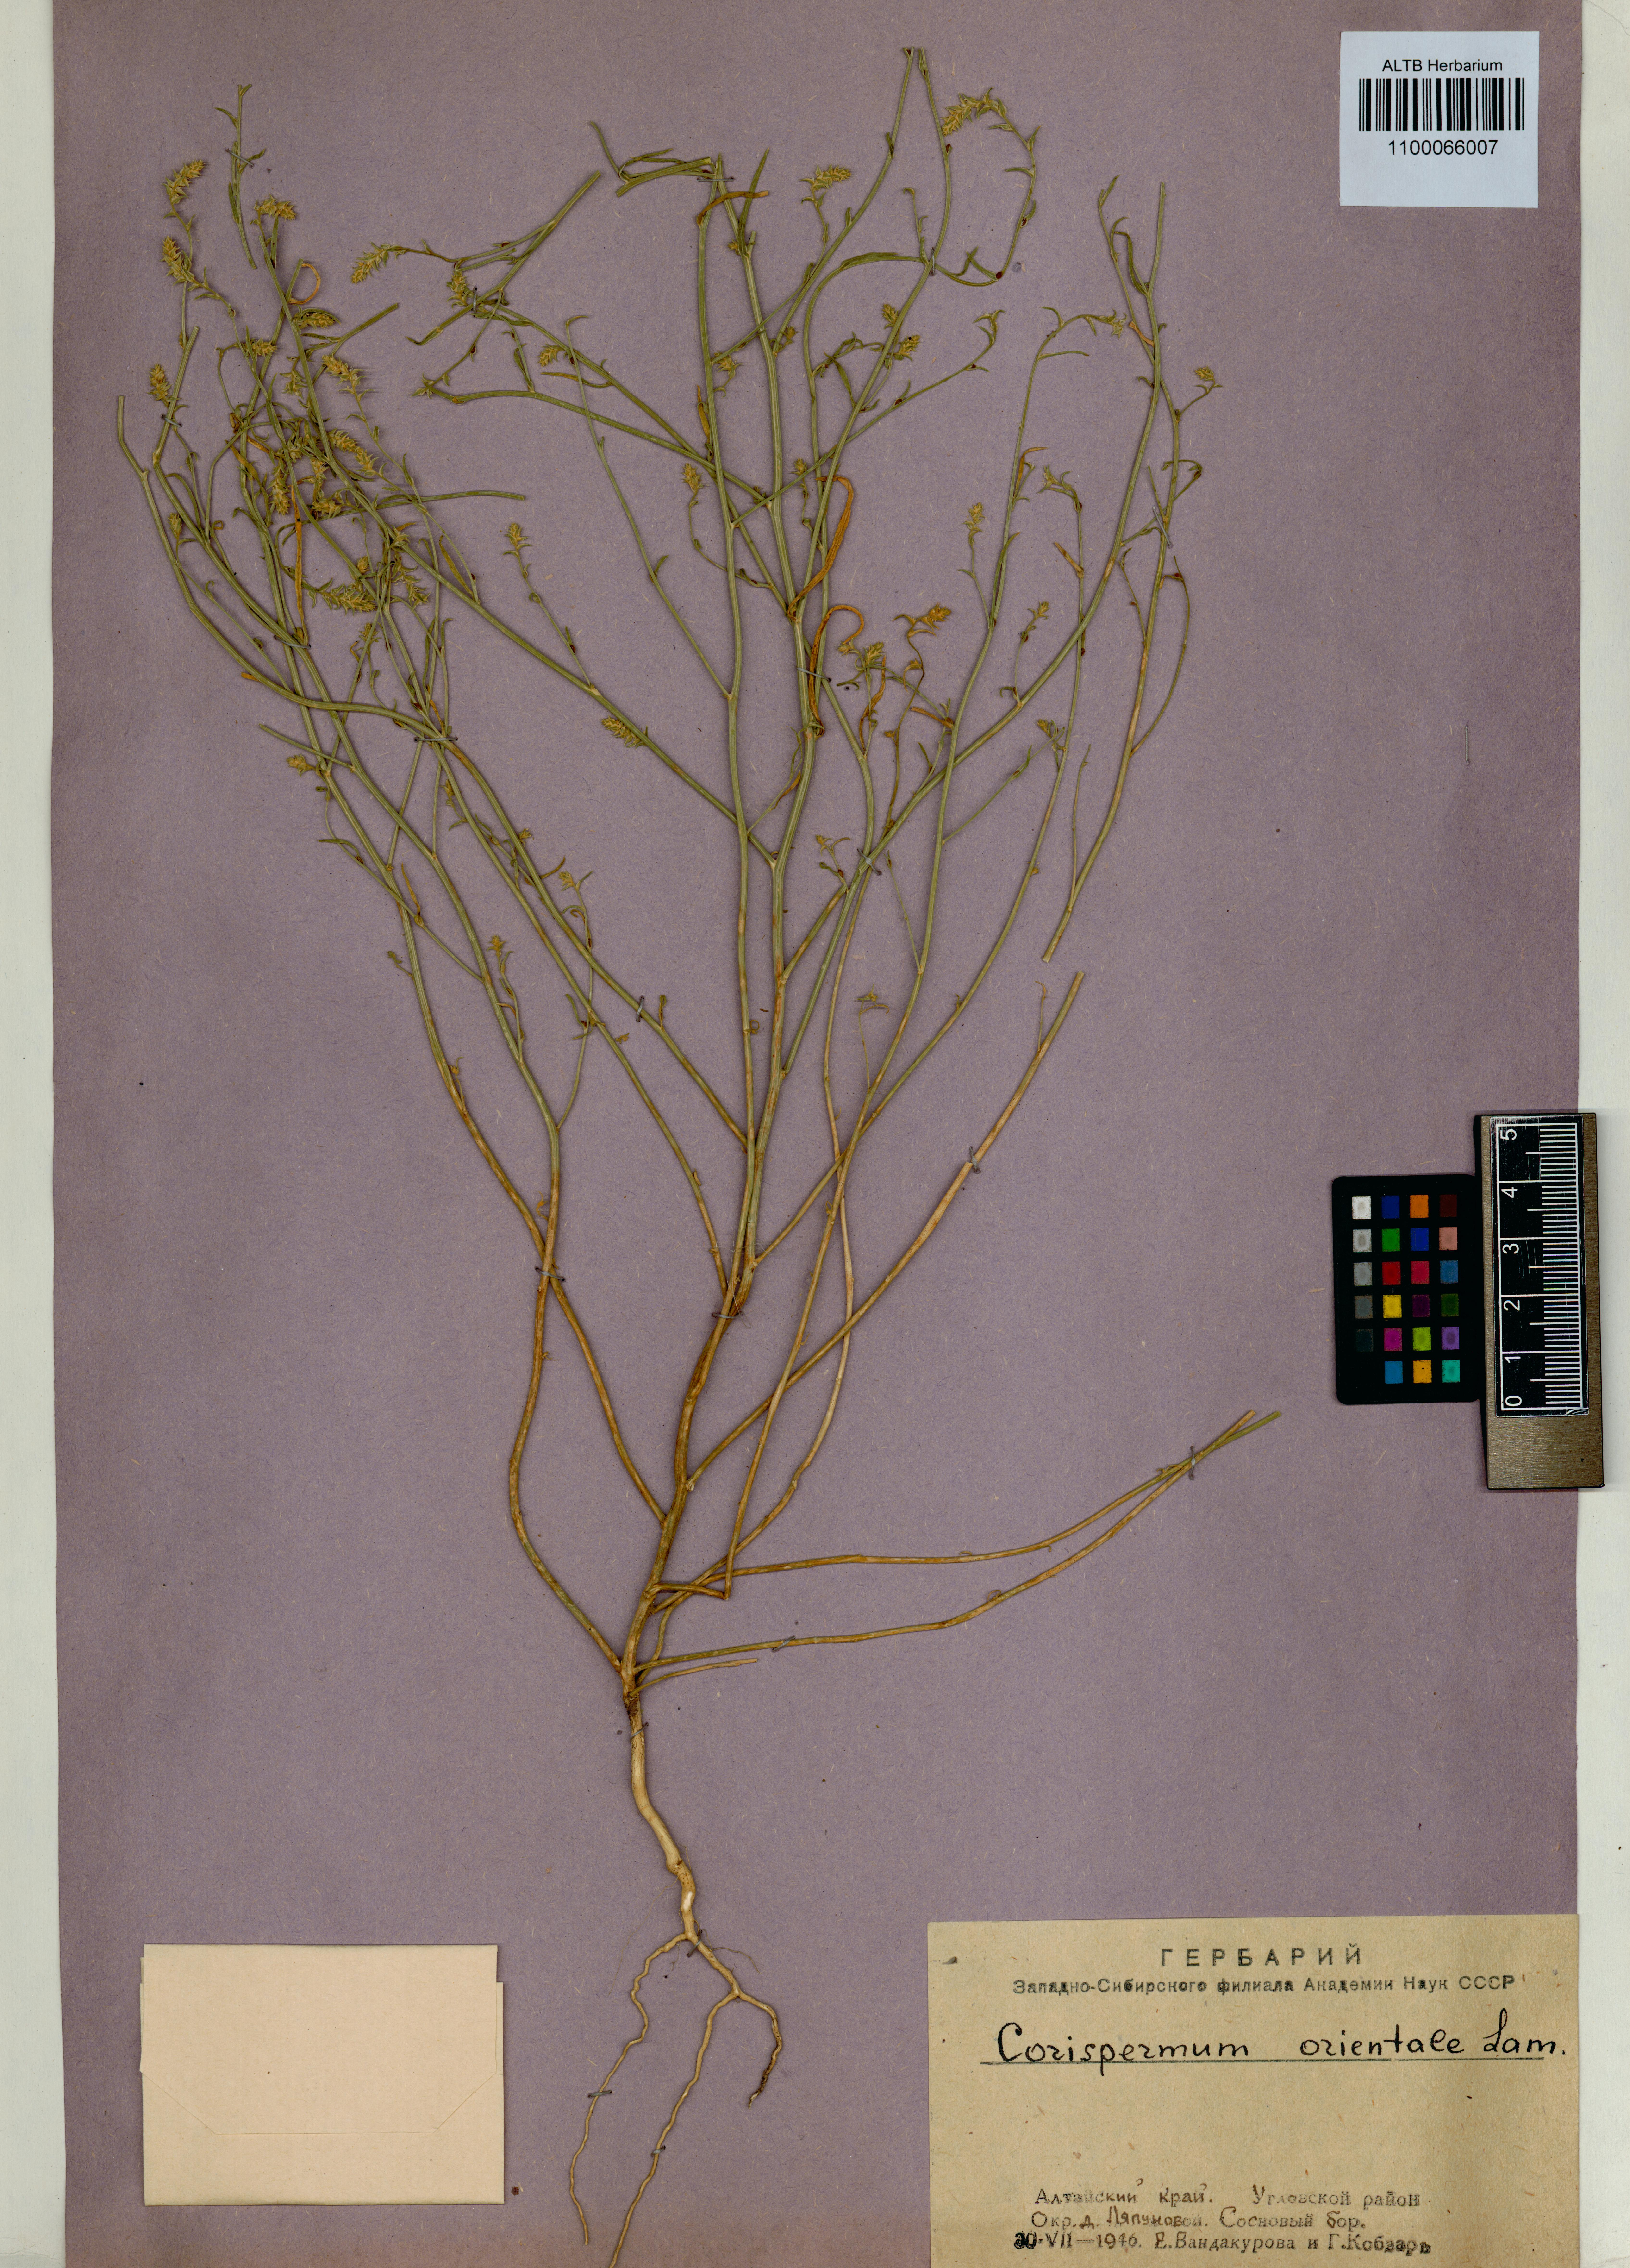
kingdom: Plantae
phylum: Tracheophyta
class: Magnoliopsida
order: Caryophyllales
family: Amaranthaceae
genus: Corispermum
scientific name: Corispermum aralocaspicum
